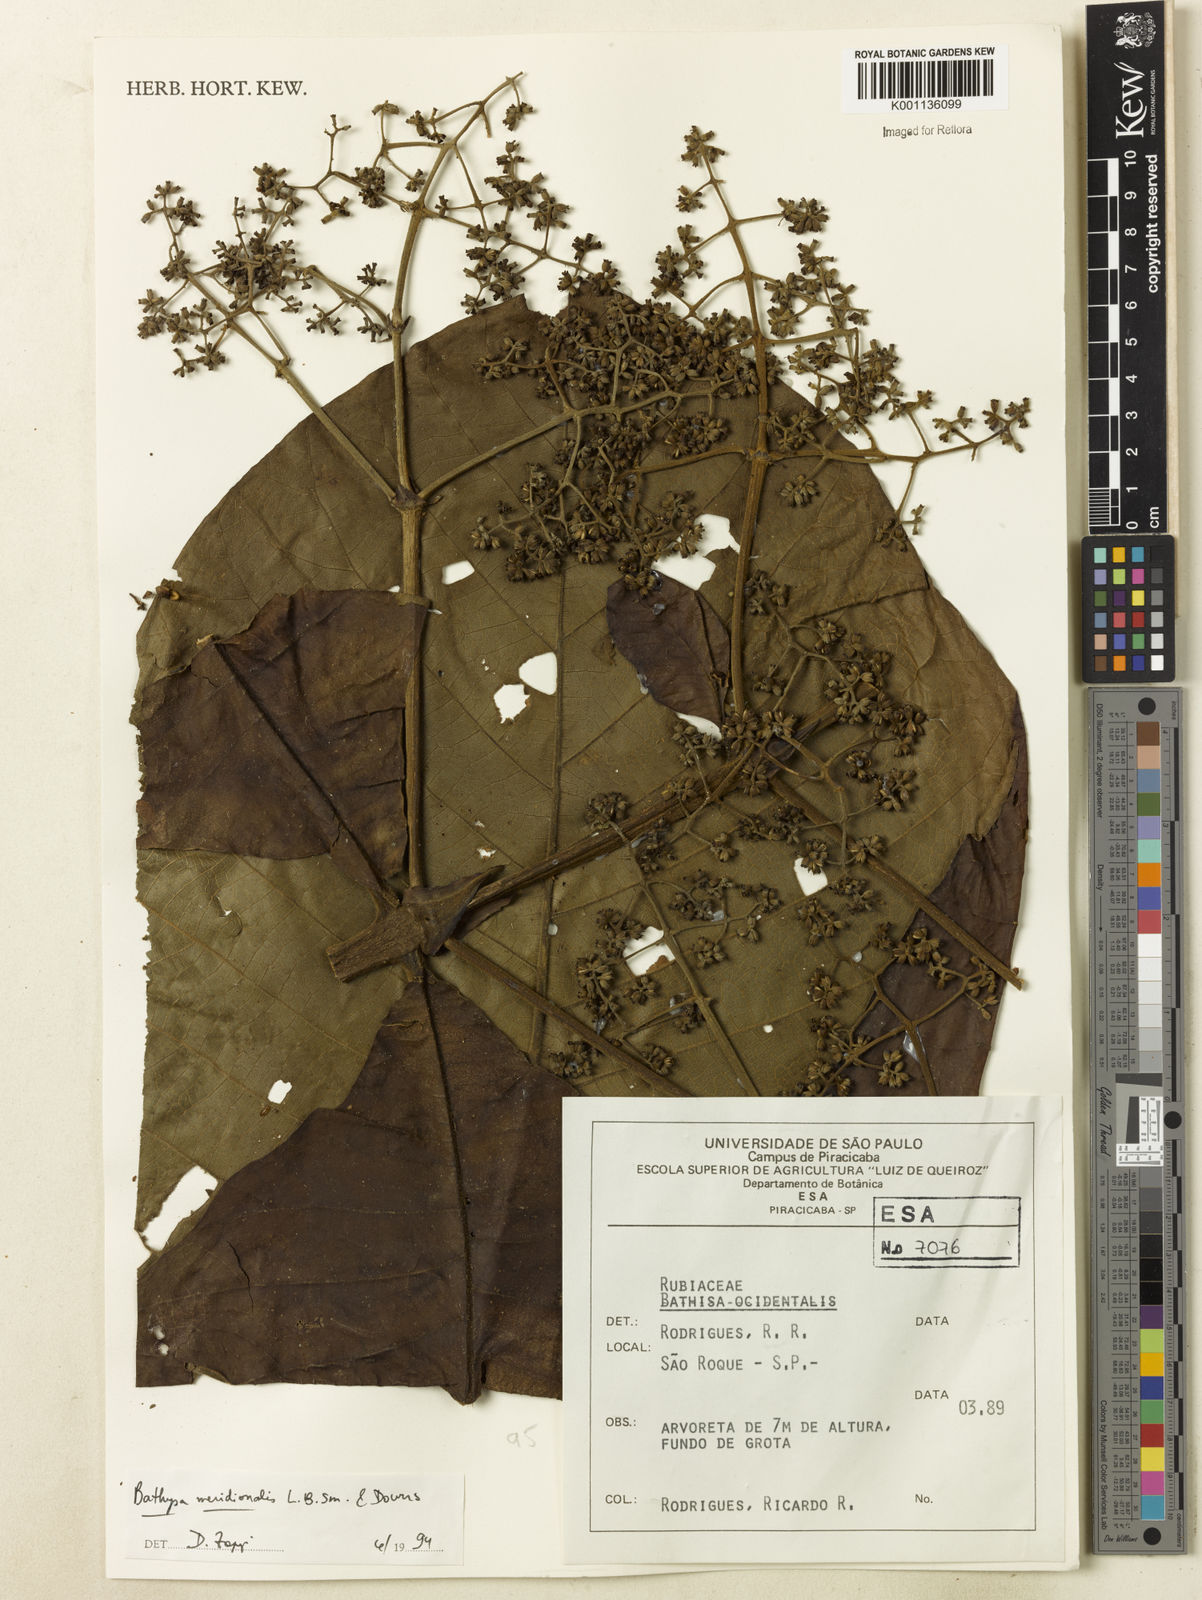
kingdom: Plantae
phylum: Tracheophyta
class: Magnoliopsida
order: Gentianales
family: Rubiaceae
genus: Bathysa
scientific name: Bathysa australis
